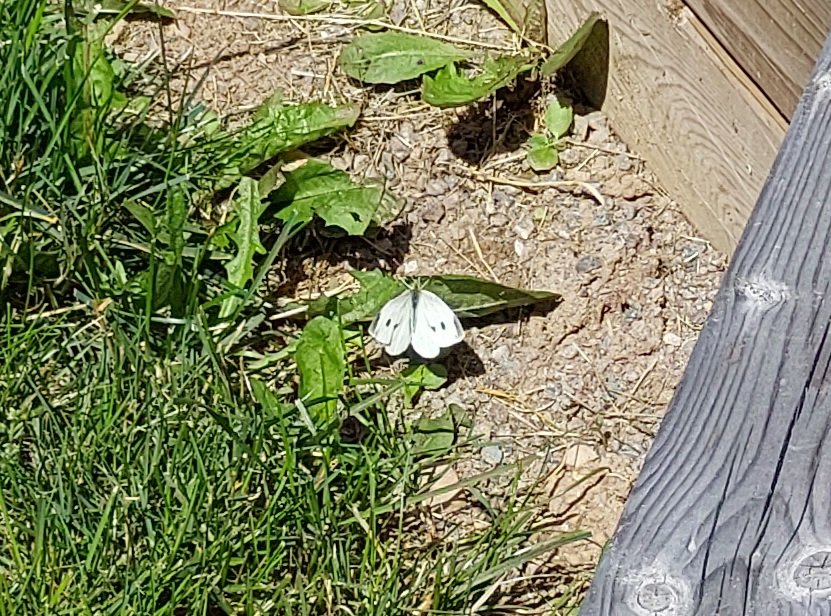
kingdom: Animalia
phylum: Arthropoda
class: Insecta
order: Lepidoptera
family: Pieridae
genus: Pieris
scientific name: Pieris rapae
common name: Cabbage White
